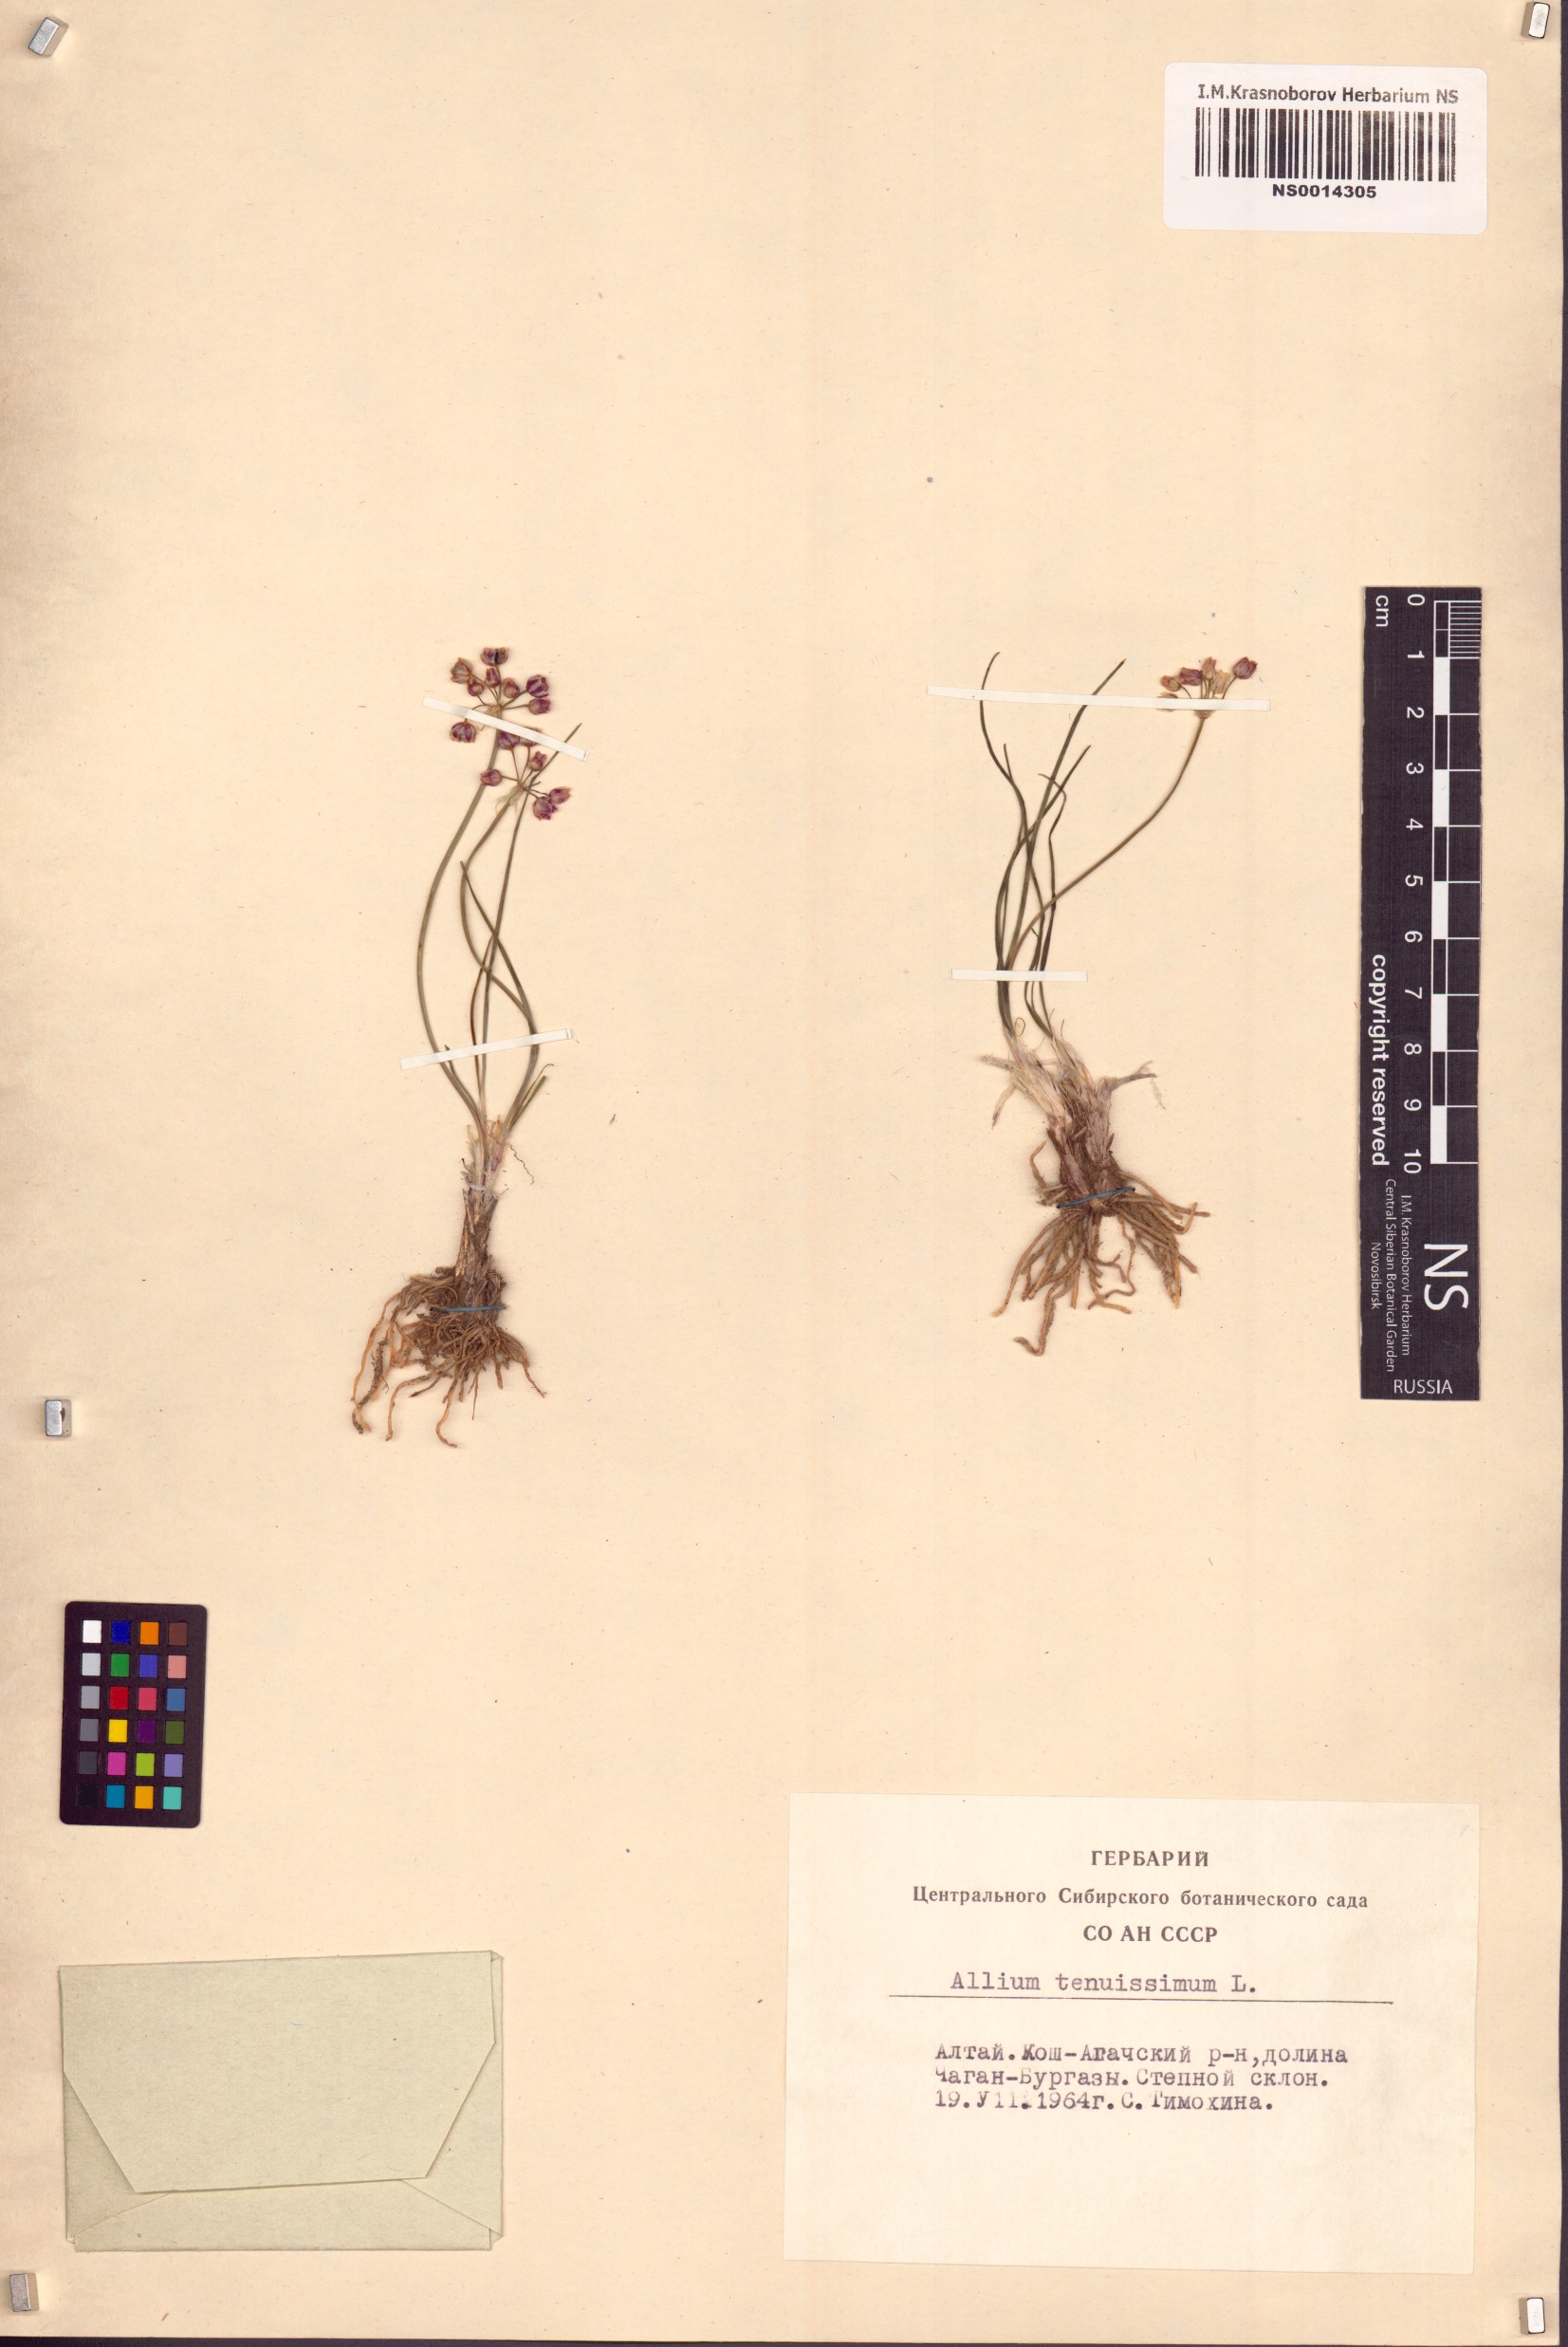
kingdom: Plantae
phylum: Tracheophyta
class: Liliopsida
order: Asparagales
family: Amaryllidaceae
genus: Allium
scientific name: Allium tenuissimum
